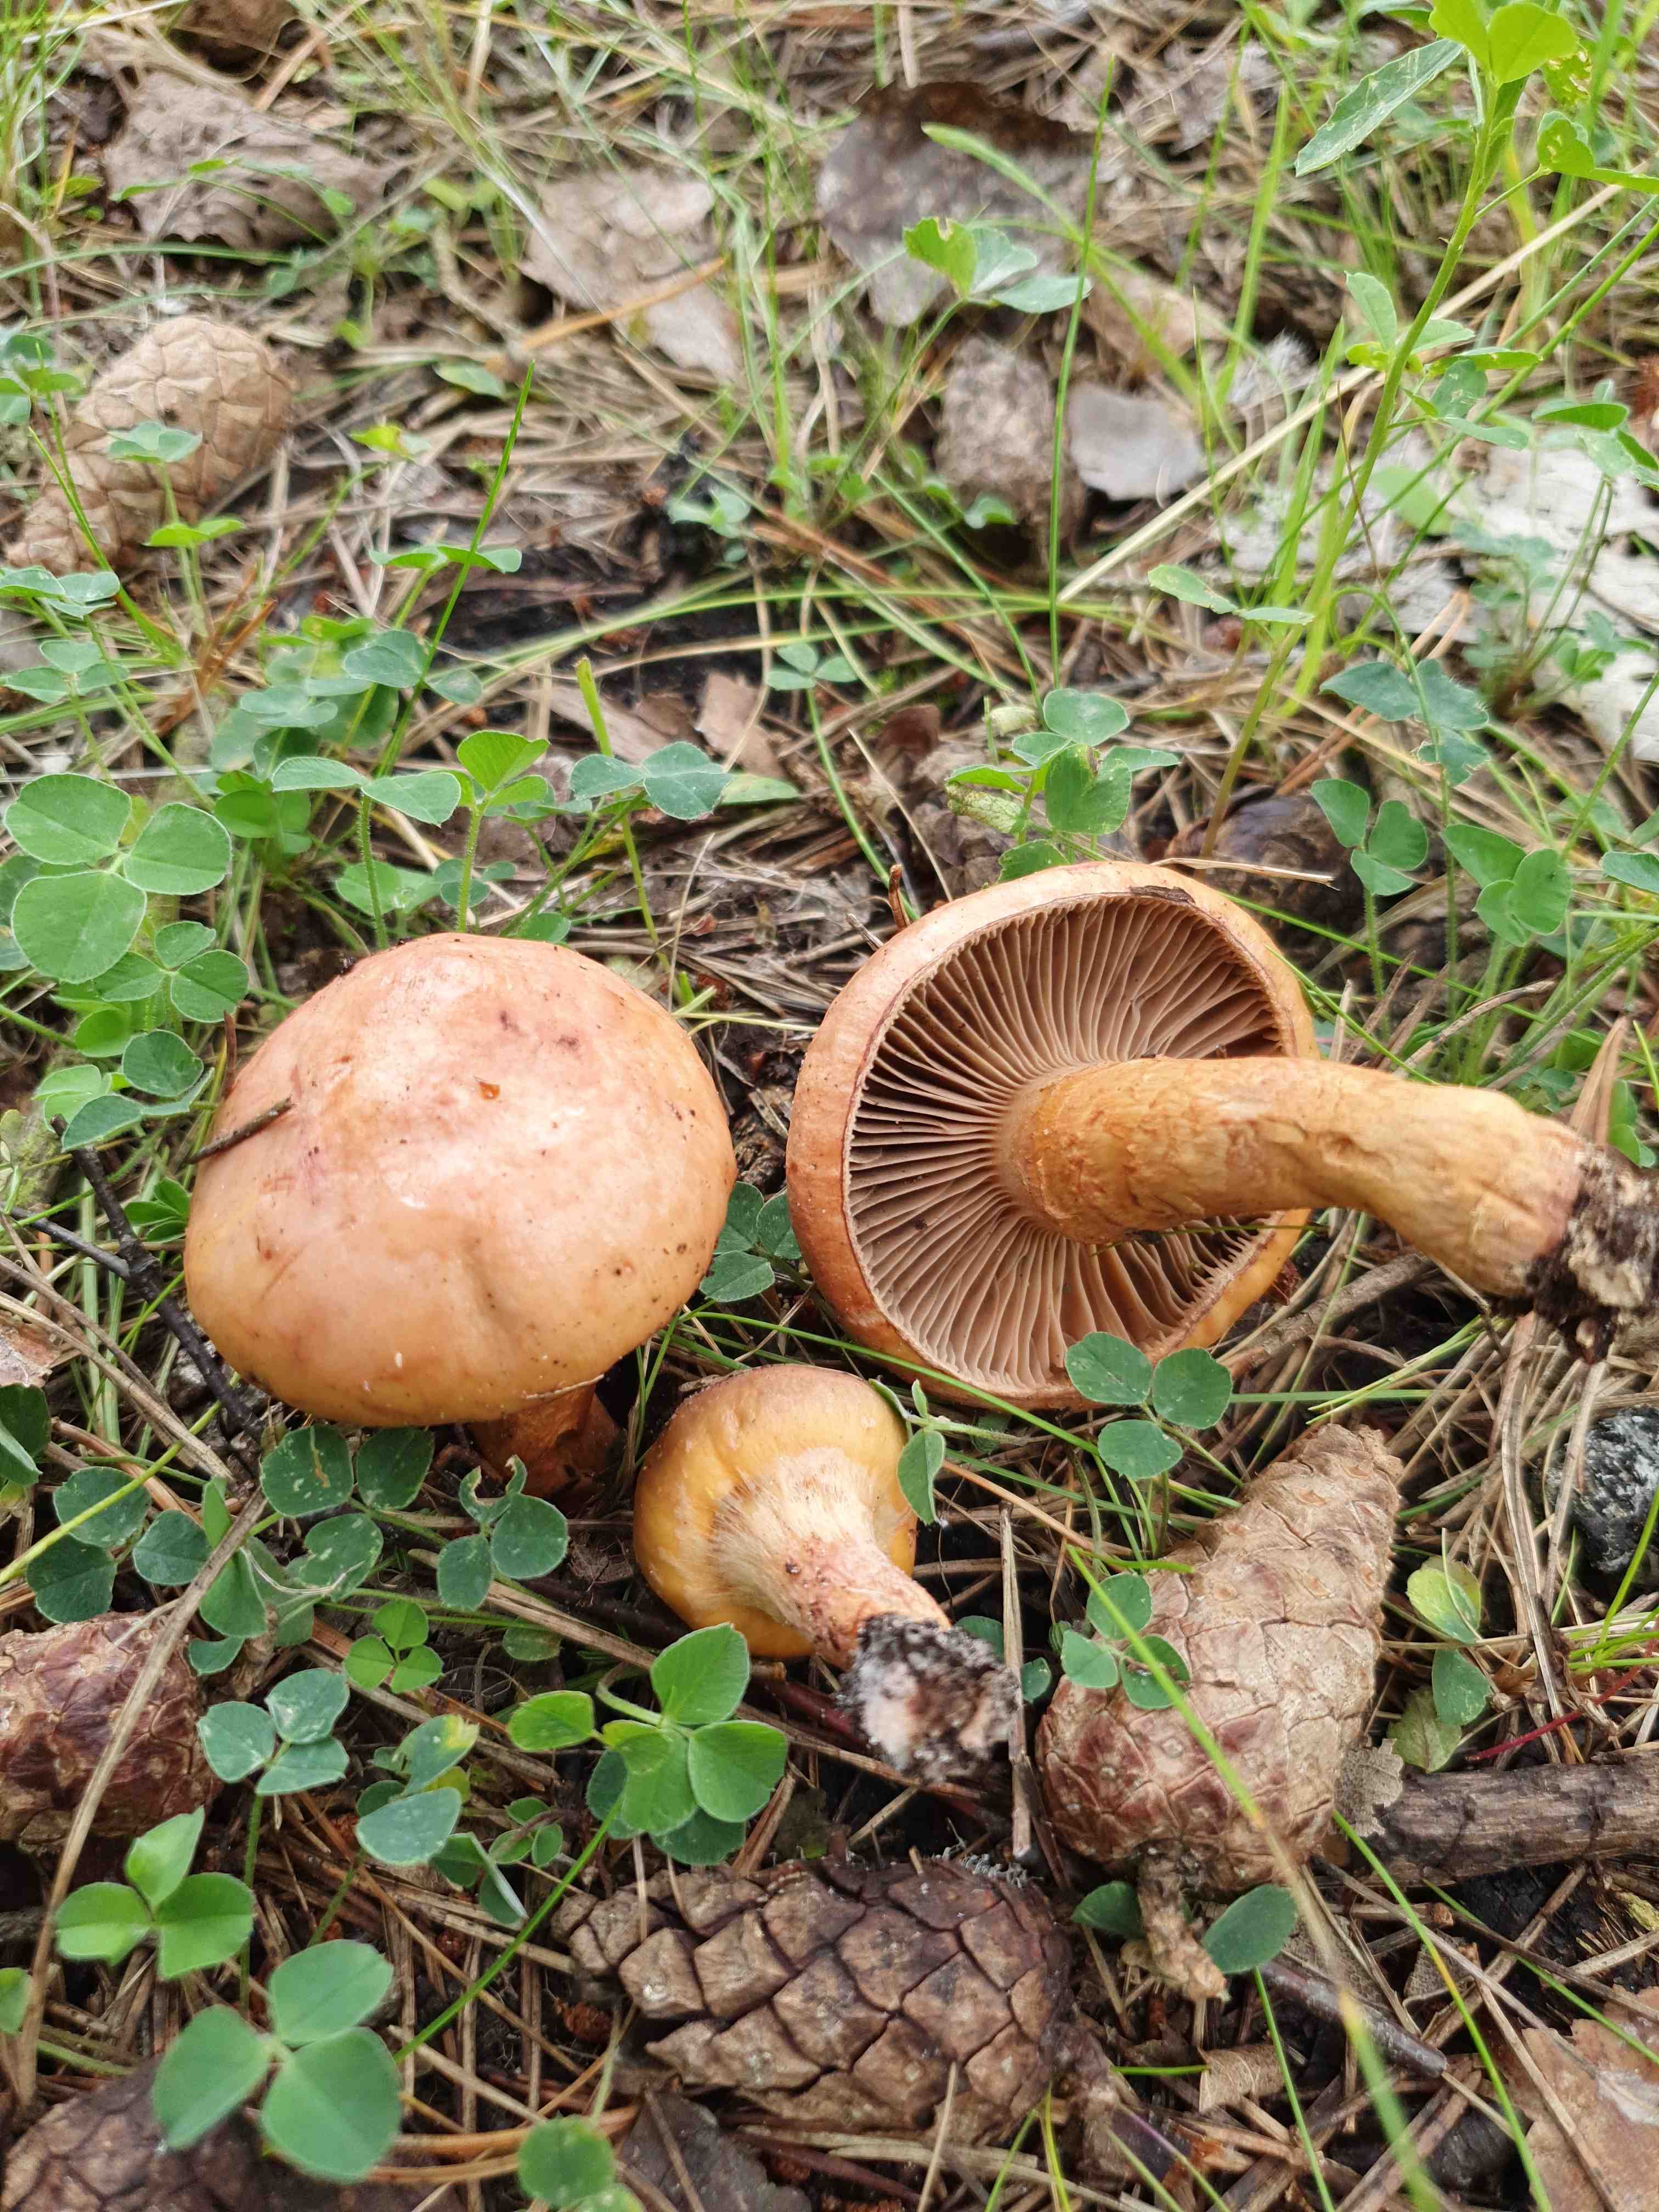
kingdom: Fungi
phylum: Basidiomycota
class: Agaricomycetes
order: Boletales
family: Gomphidiaceae
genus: Chroogomphus
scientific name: Chroogomphus rutilus
